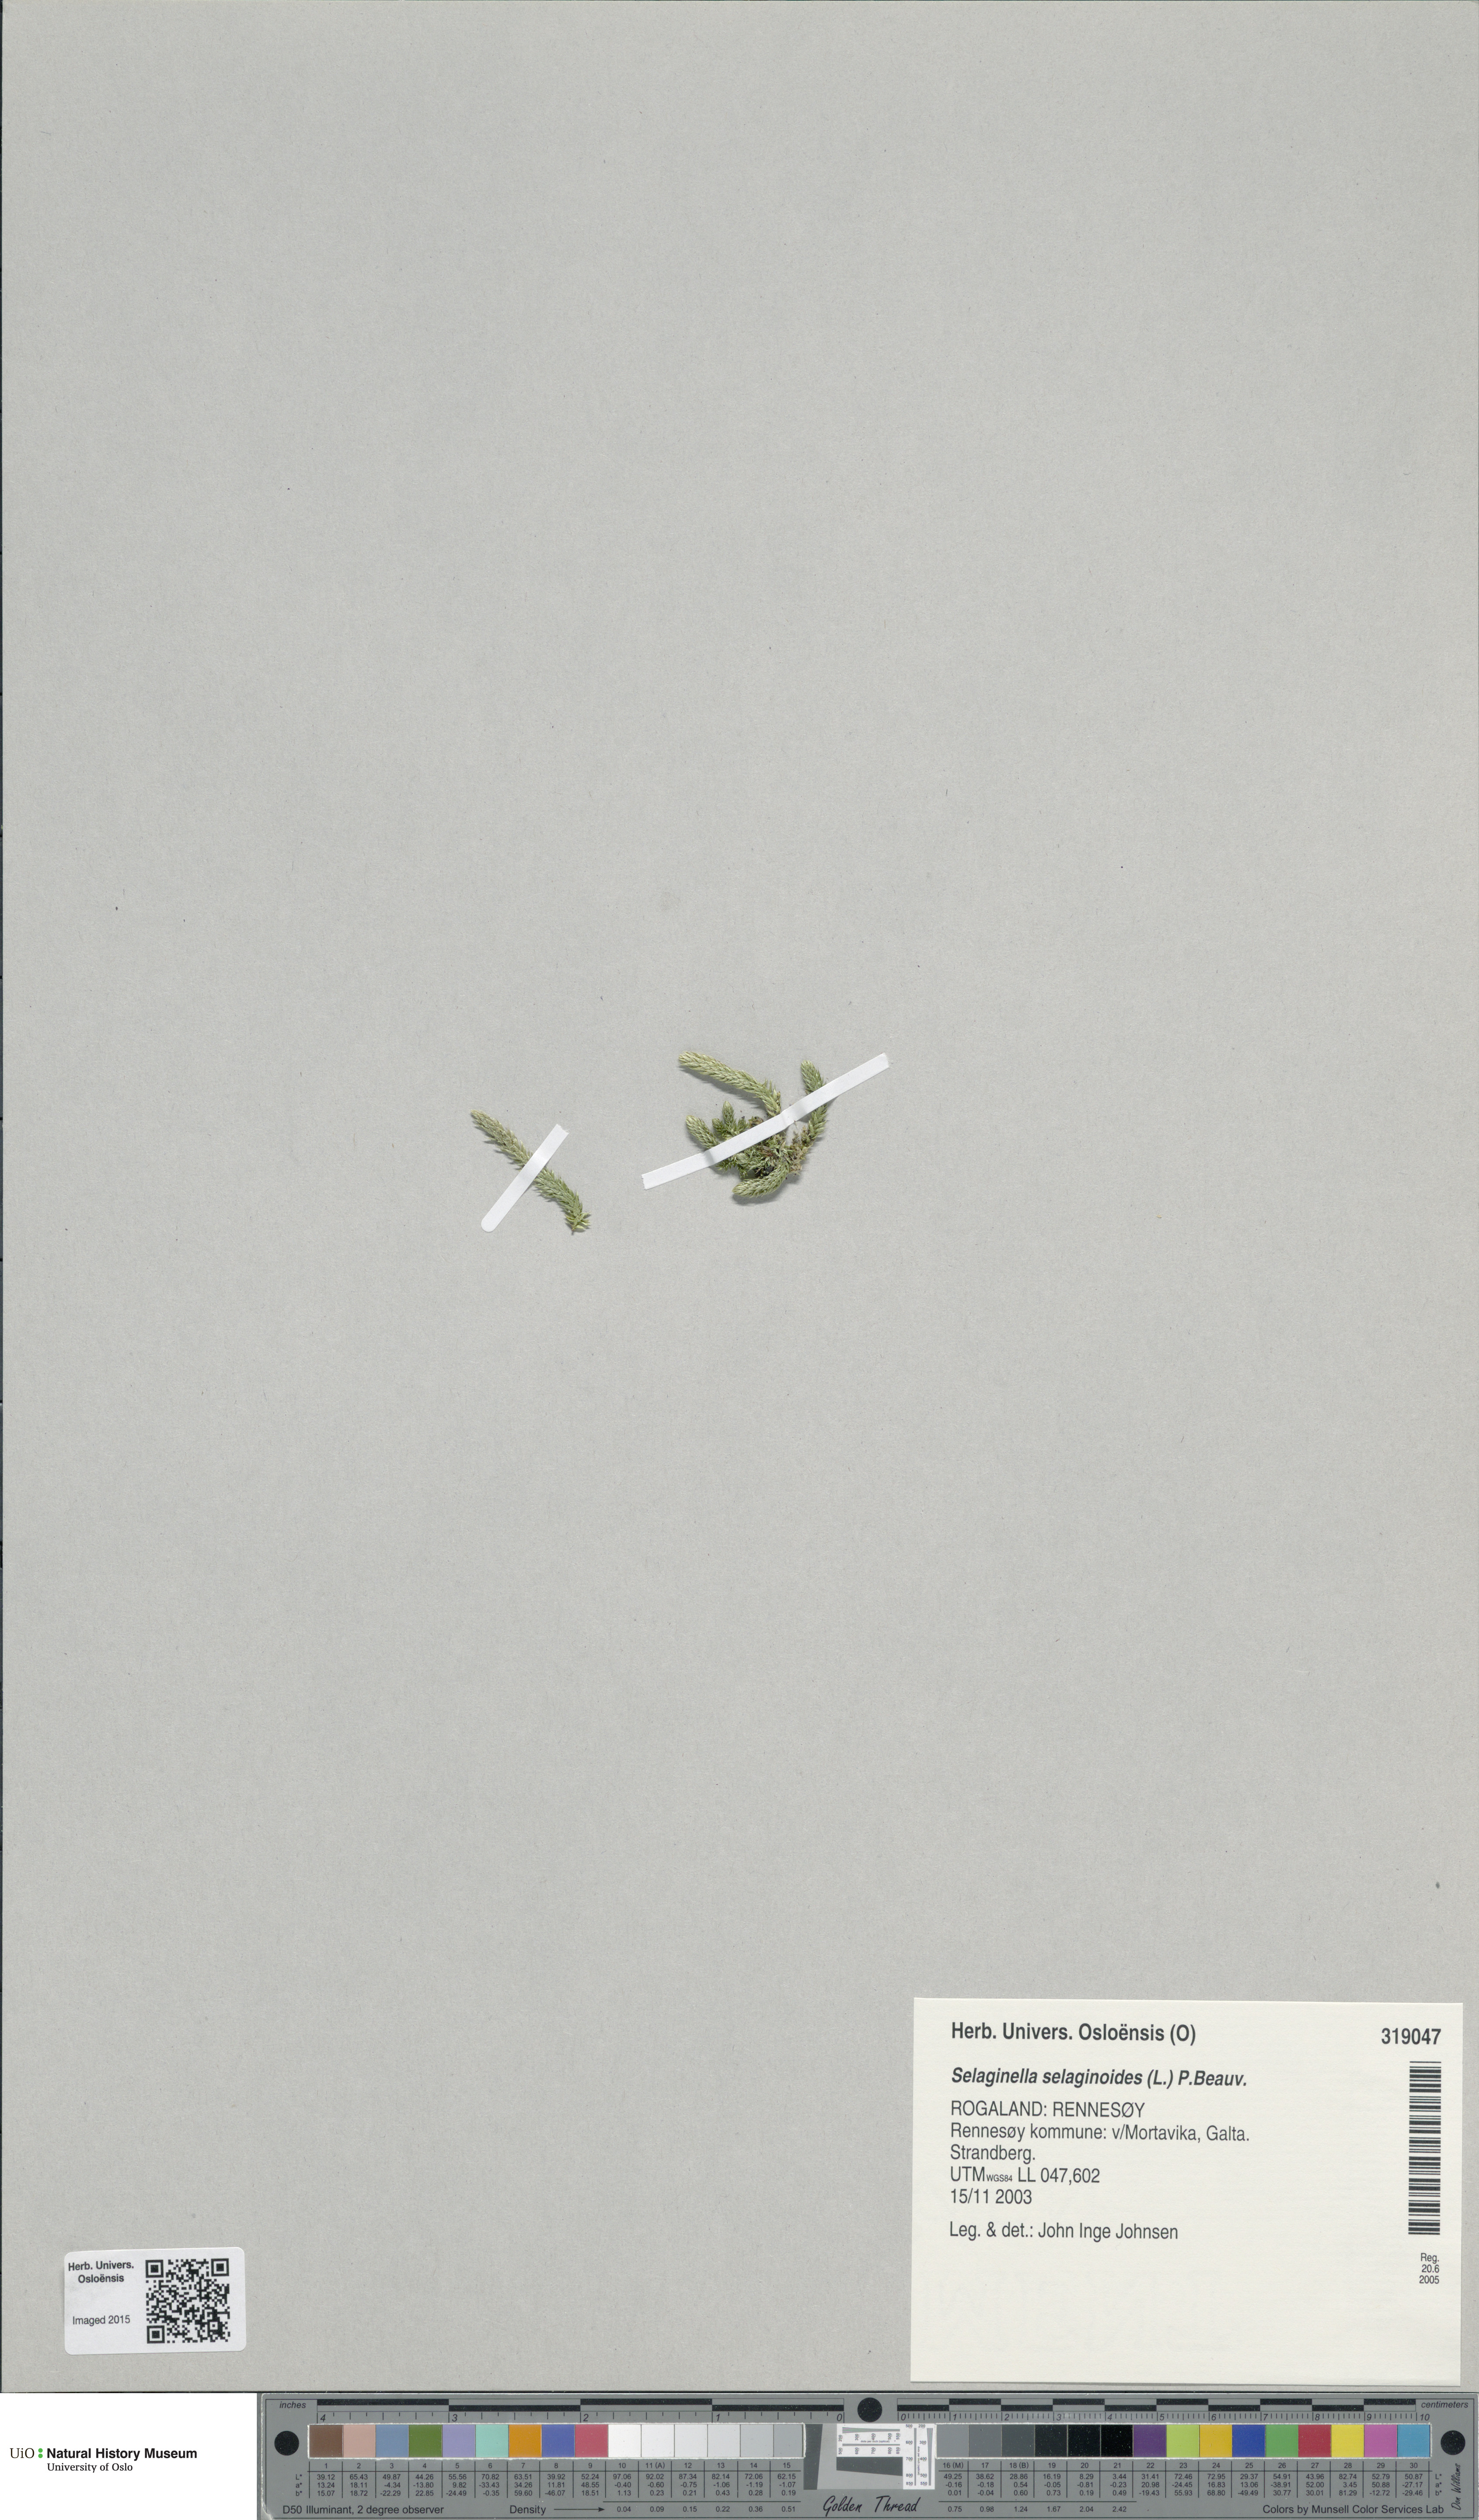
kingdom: Plantae
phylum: Tracheophyta
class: Lycopodiopsida
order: Selaginellales
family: Selaginellaceae
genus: Selaginella
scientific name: Selaginella selaginoides
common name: Prickly mountain-moss
